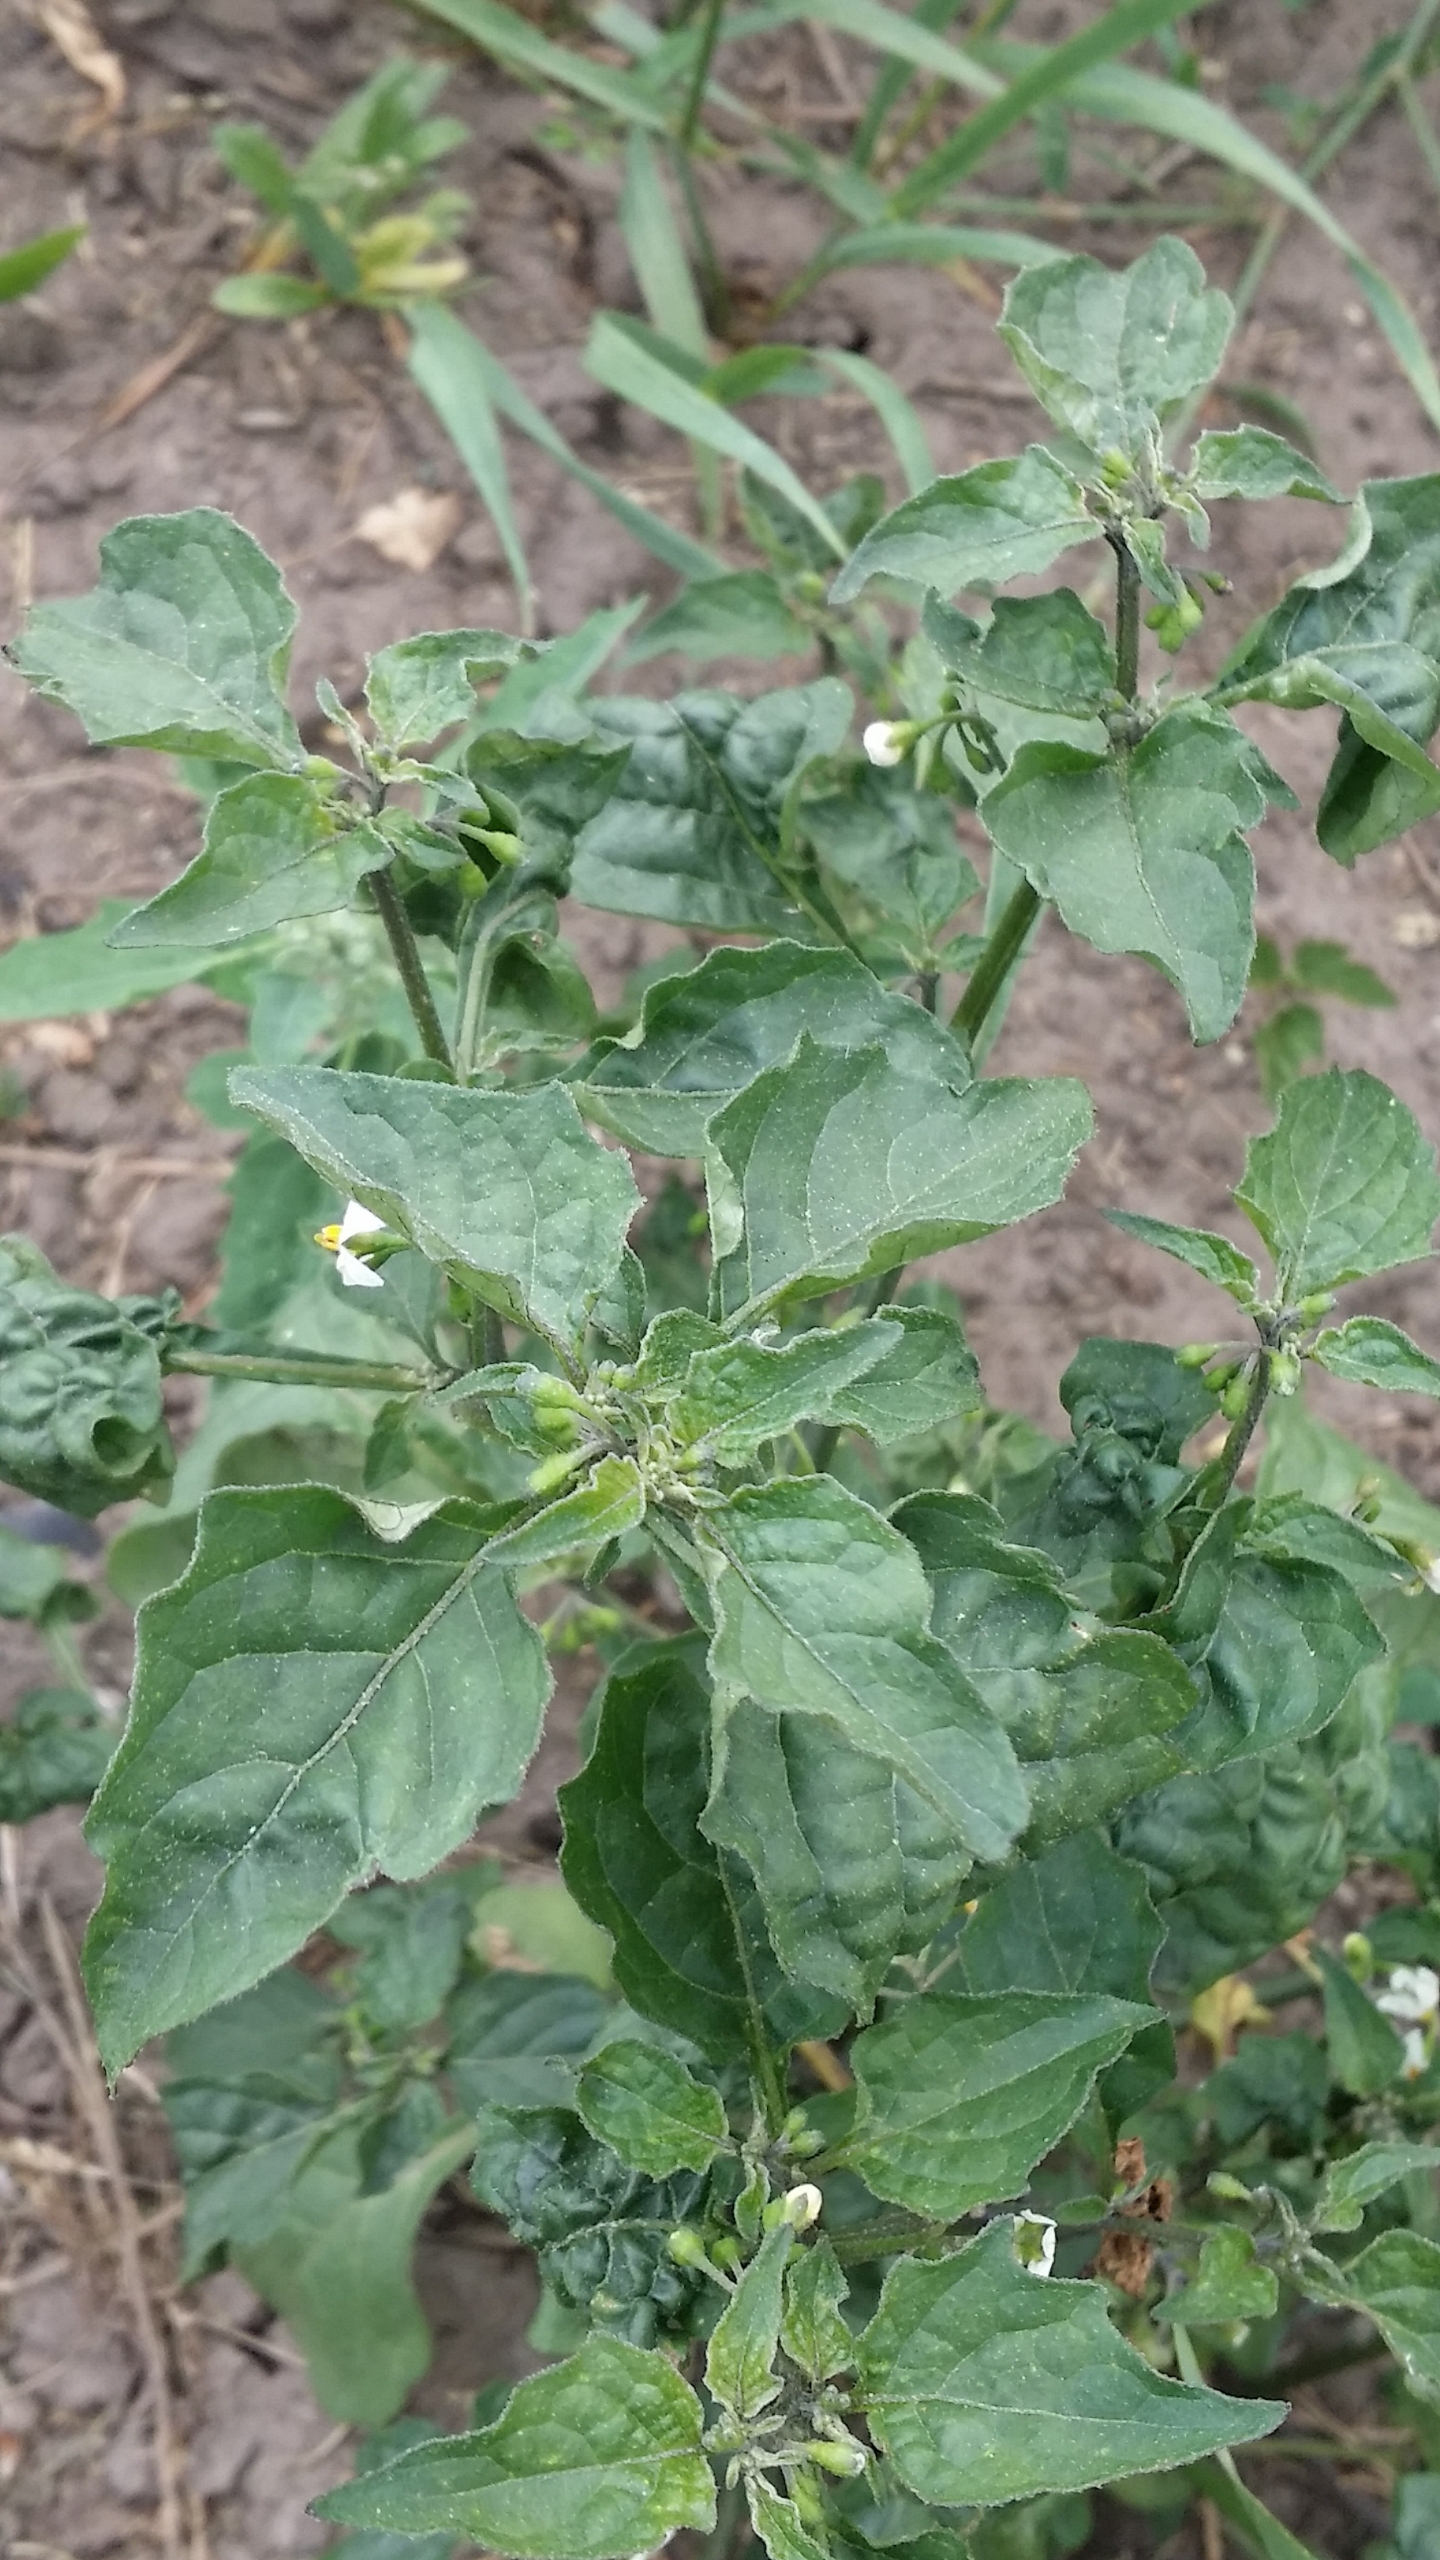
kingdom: Plantae
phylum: Tracheophyta
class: Magnoliopsida
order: Solanales
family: Solanaceae
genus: Solanum
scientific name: Solanum nigrum
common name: Sort natskygge
